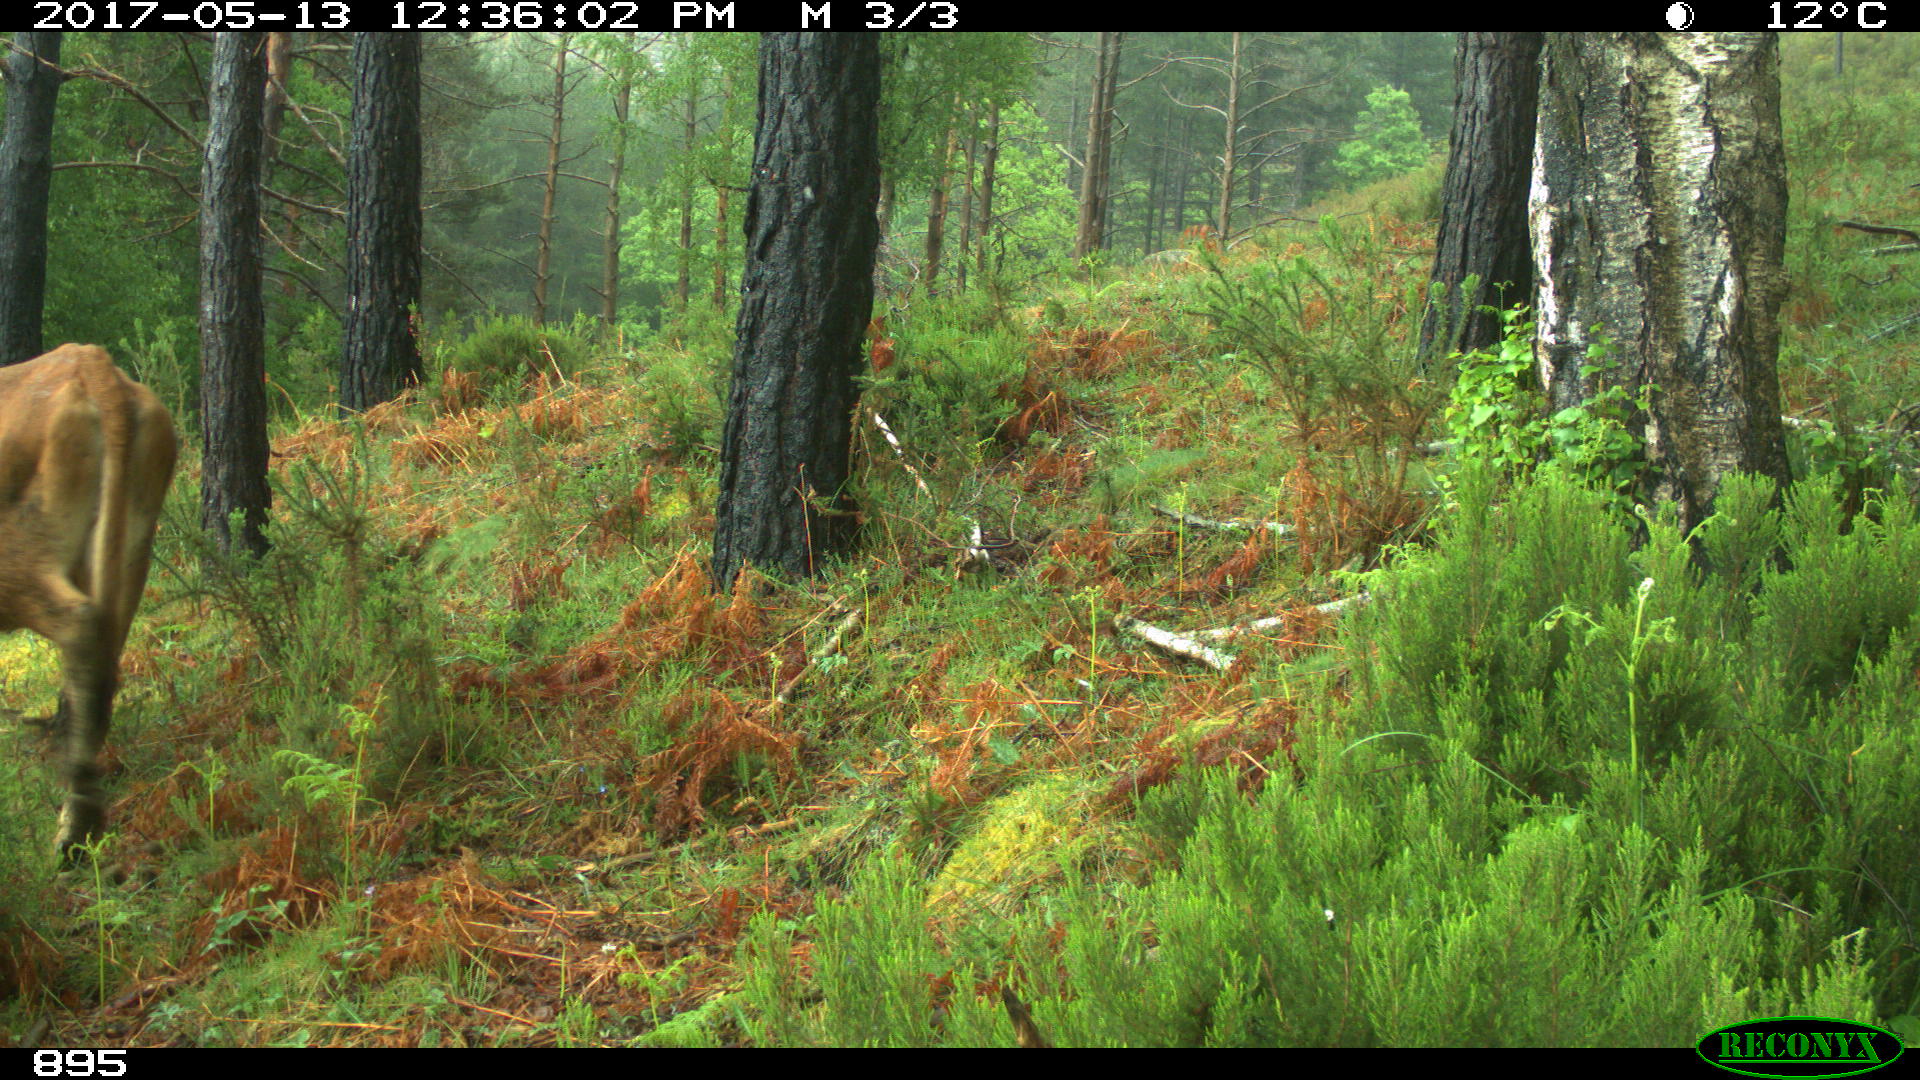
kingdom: Animalia
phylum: Chordata
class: Mammalia
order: Artiodactyla
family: Bovidae
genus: Bos
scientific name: Bos taurus
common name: Domesticated cattle
